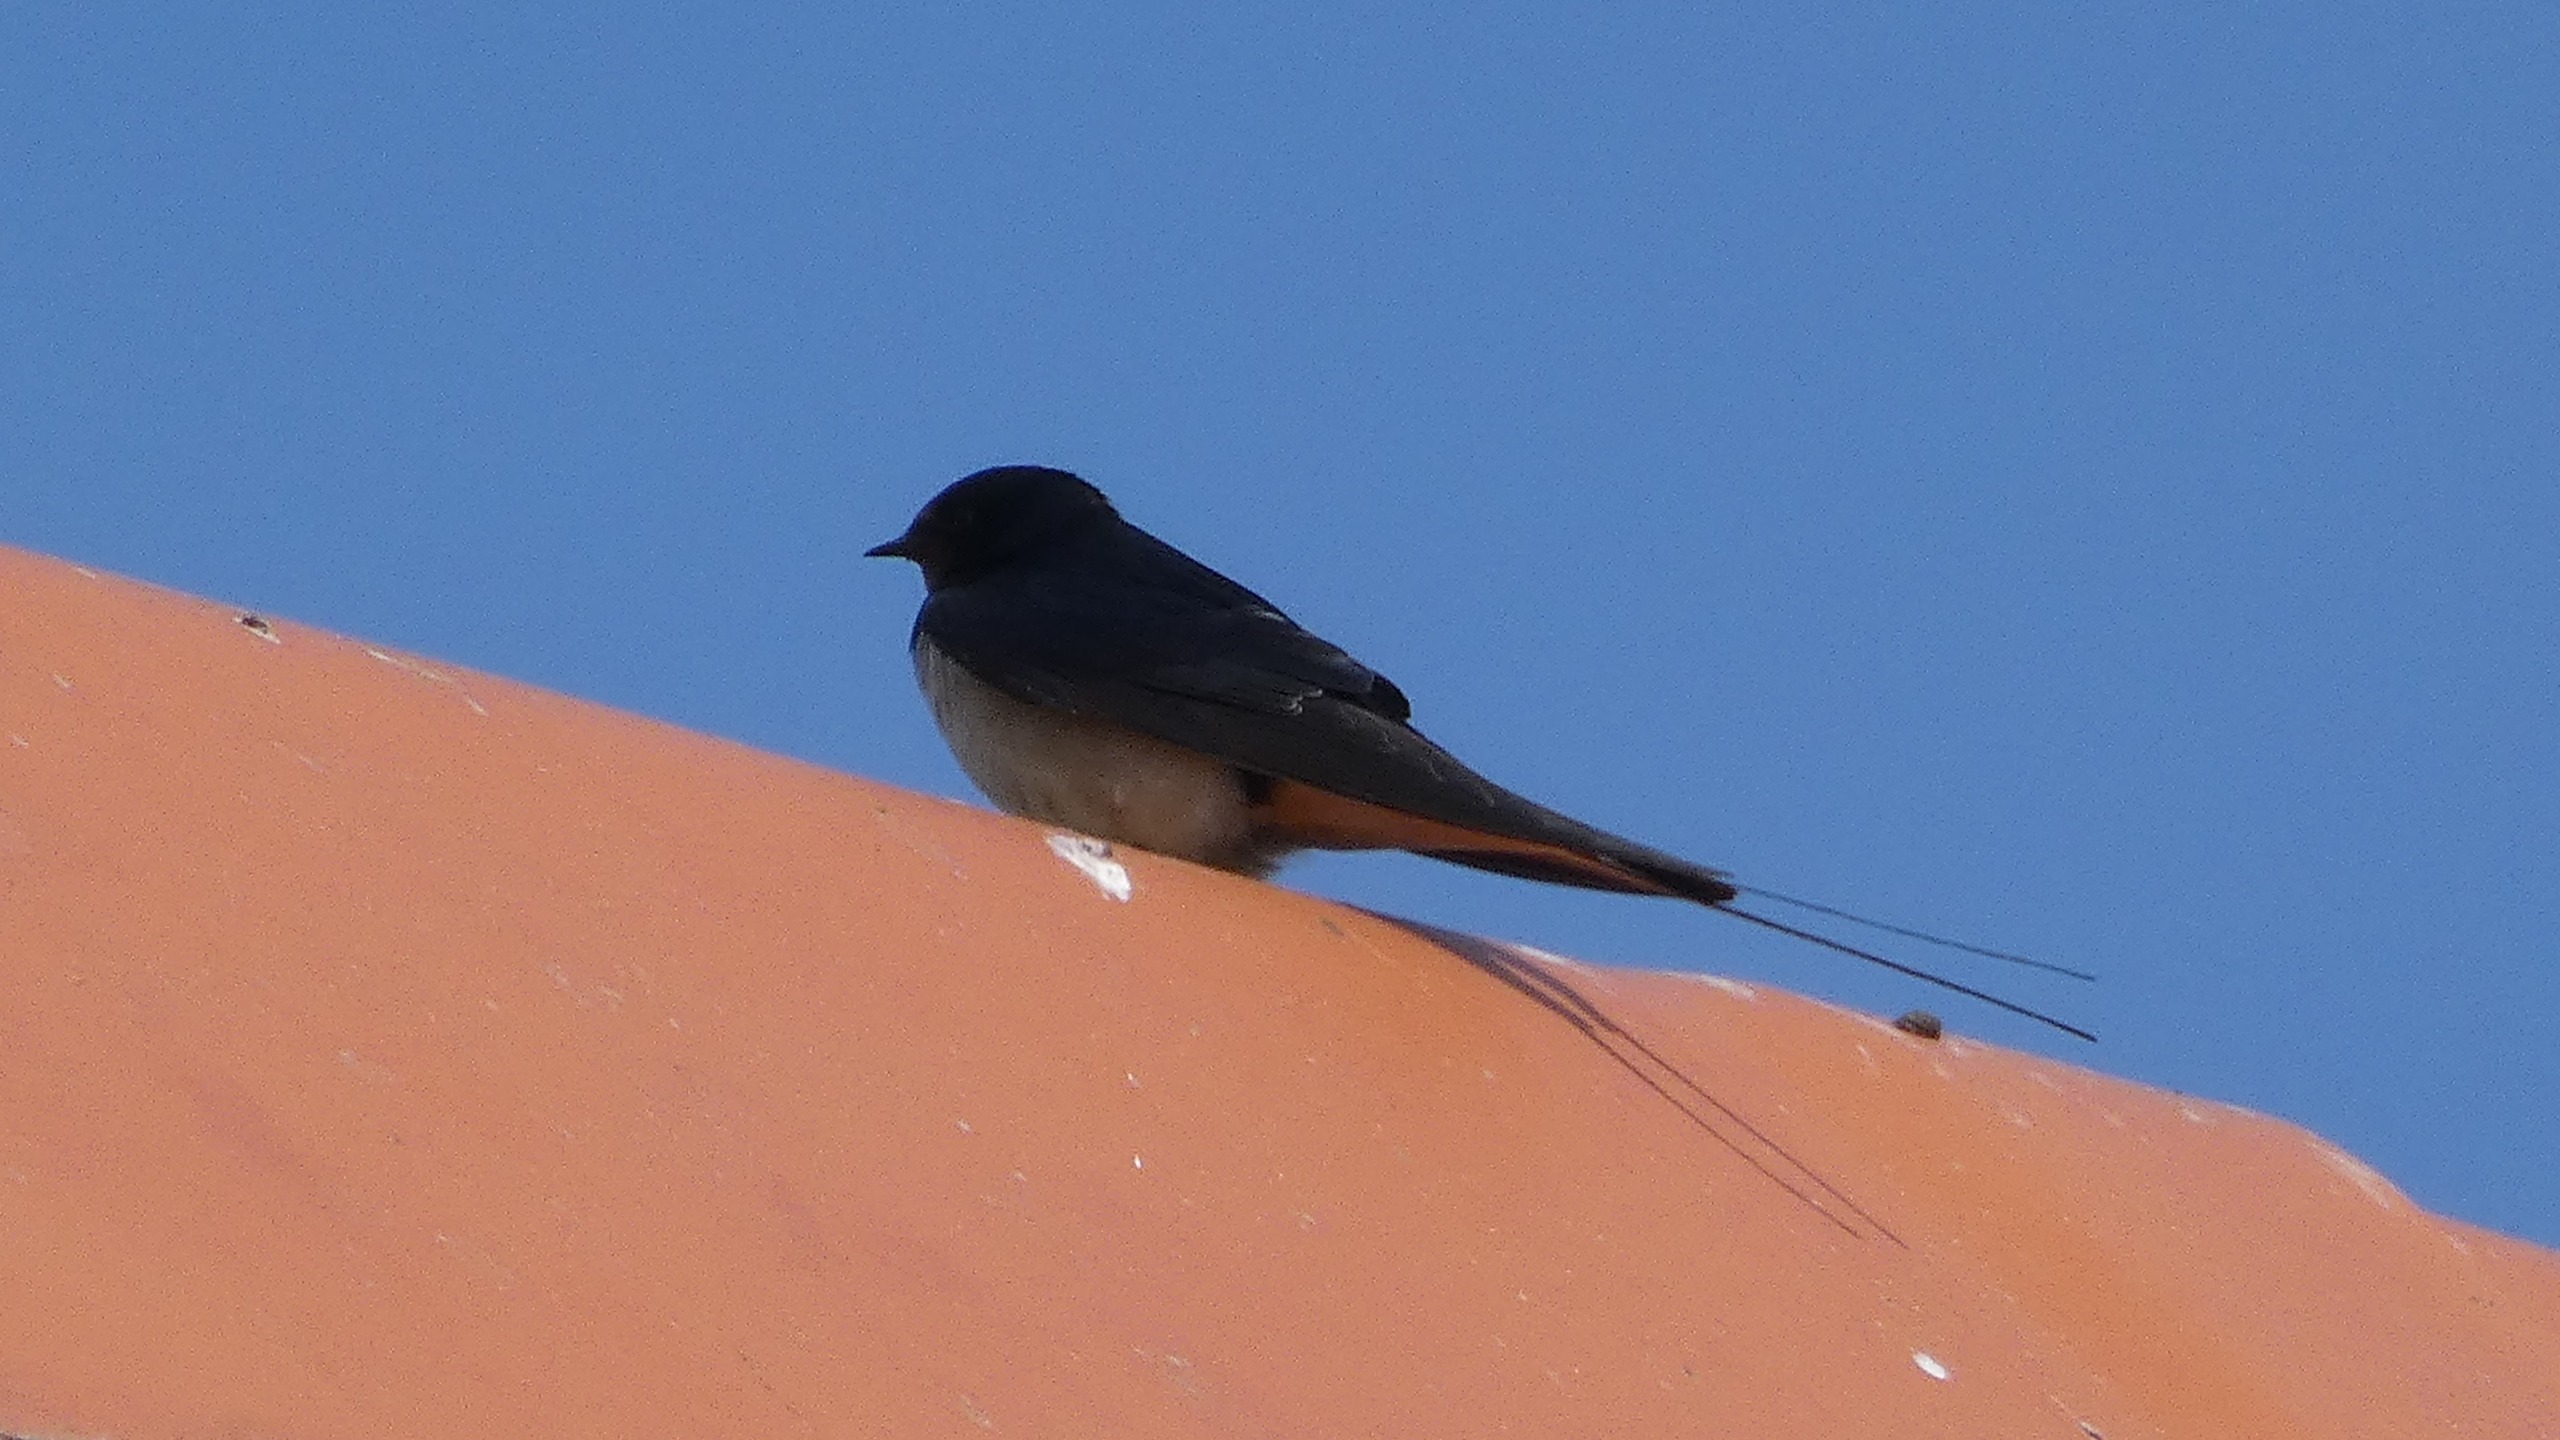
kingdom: Animalia
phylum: Chordata
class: Aves
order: Passeriformes
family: Hirundinidae
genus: Hirundo
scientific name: Hirundo rustica
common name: Landsvale
